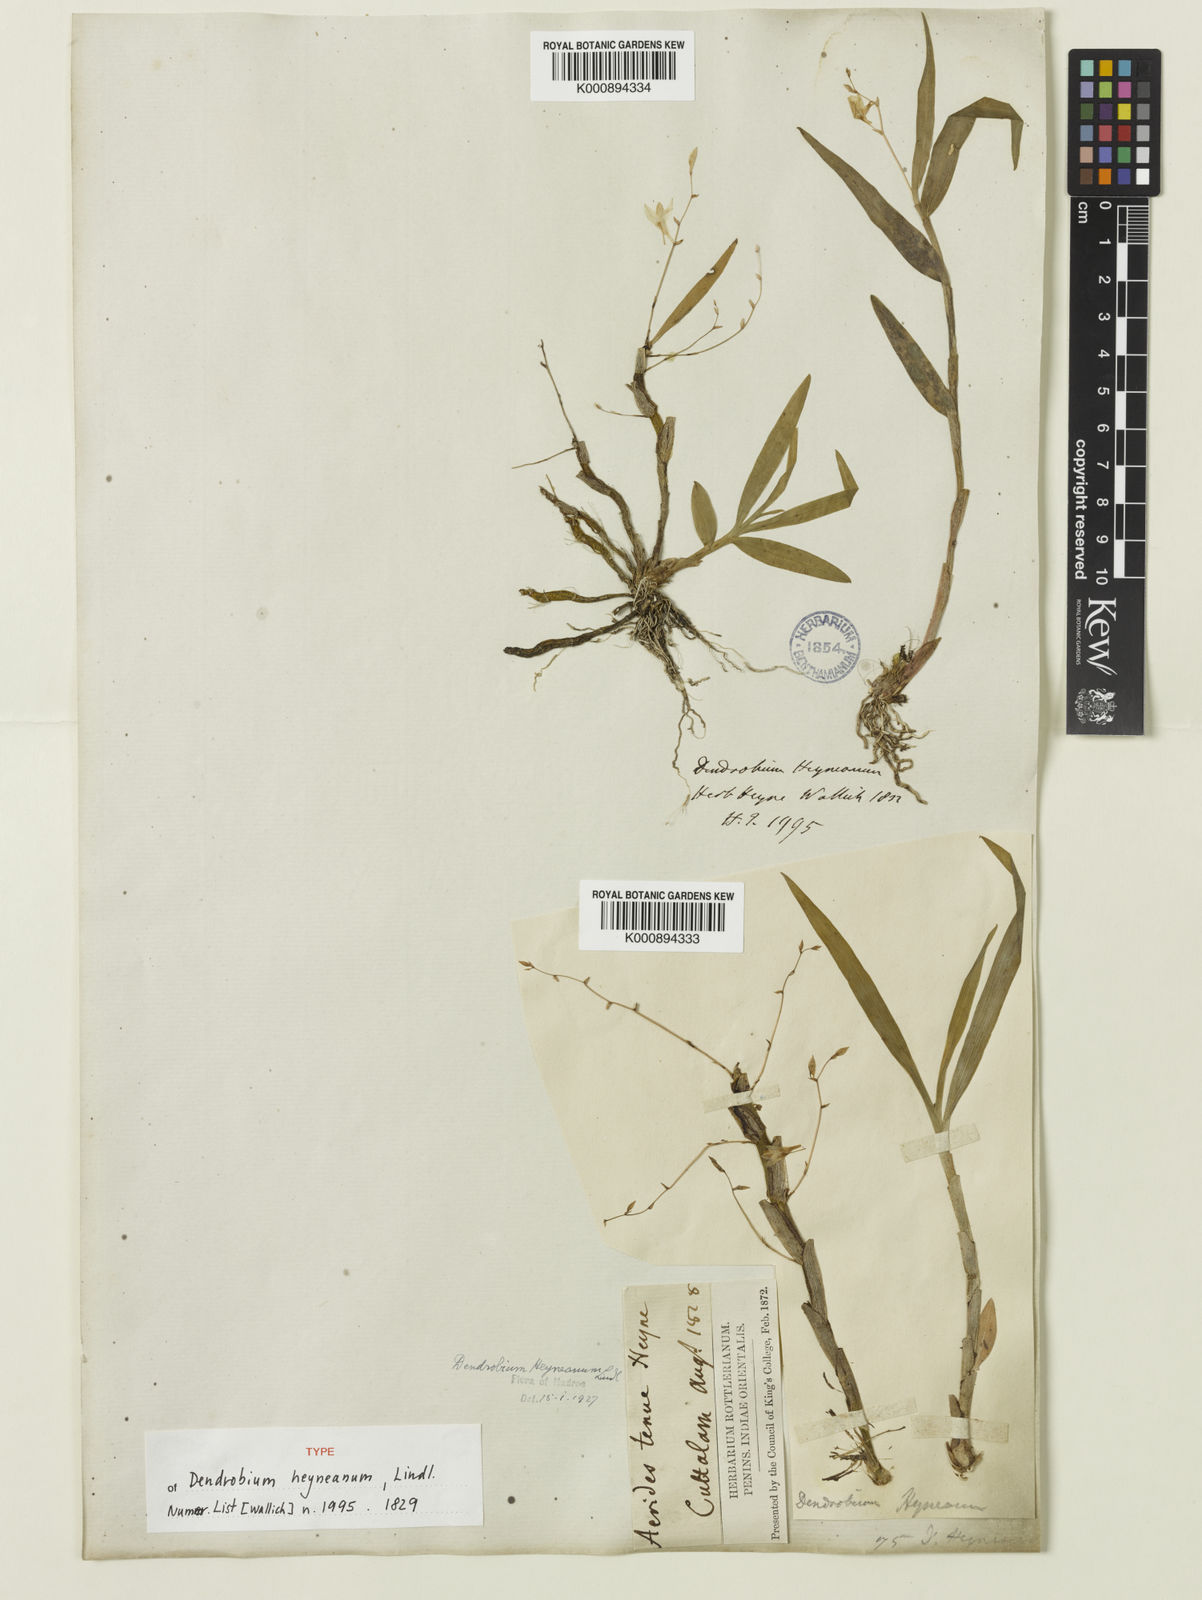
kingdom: Plantae
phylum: Tracheophyta
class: Liliopsida
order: Asparagales
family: Orchidaceae
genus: Dendrobium
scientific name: Dendrobium heyneanum
